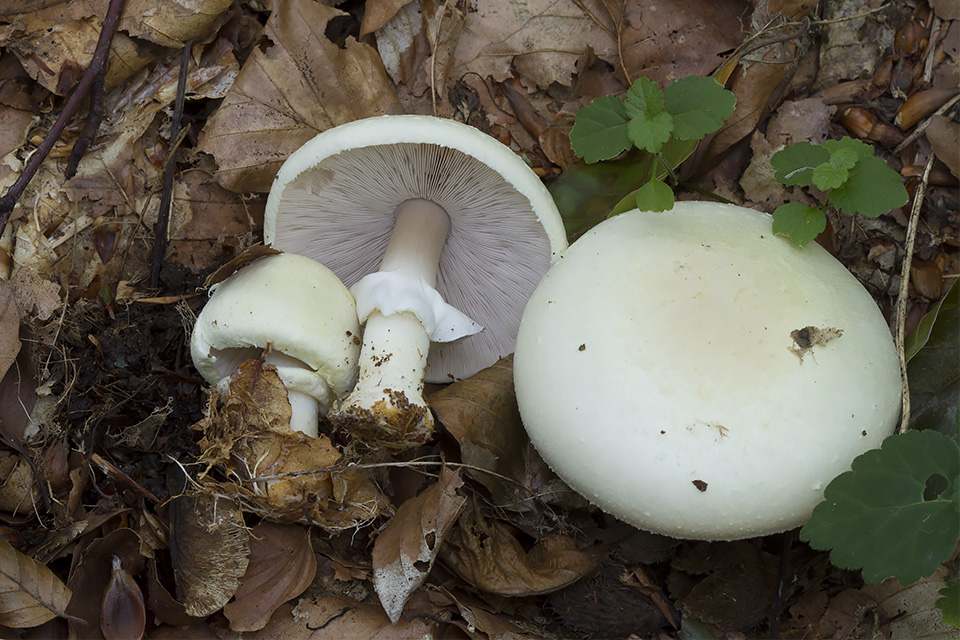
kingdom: Fungi
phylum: Basidiomycota
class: Agaricomycetes
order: Agaricales
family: Agaricaceae
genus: Agaricus
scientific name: Agaricus sylvicola
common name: skiveknoldet champignon
